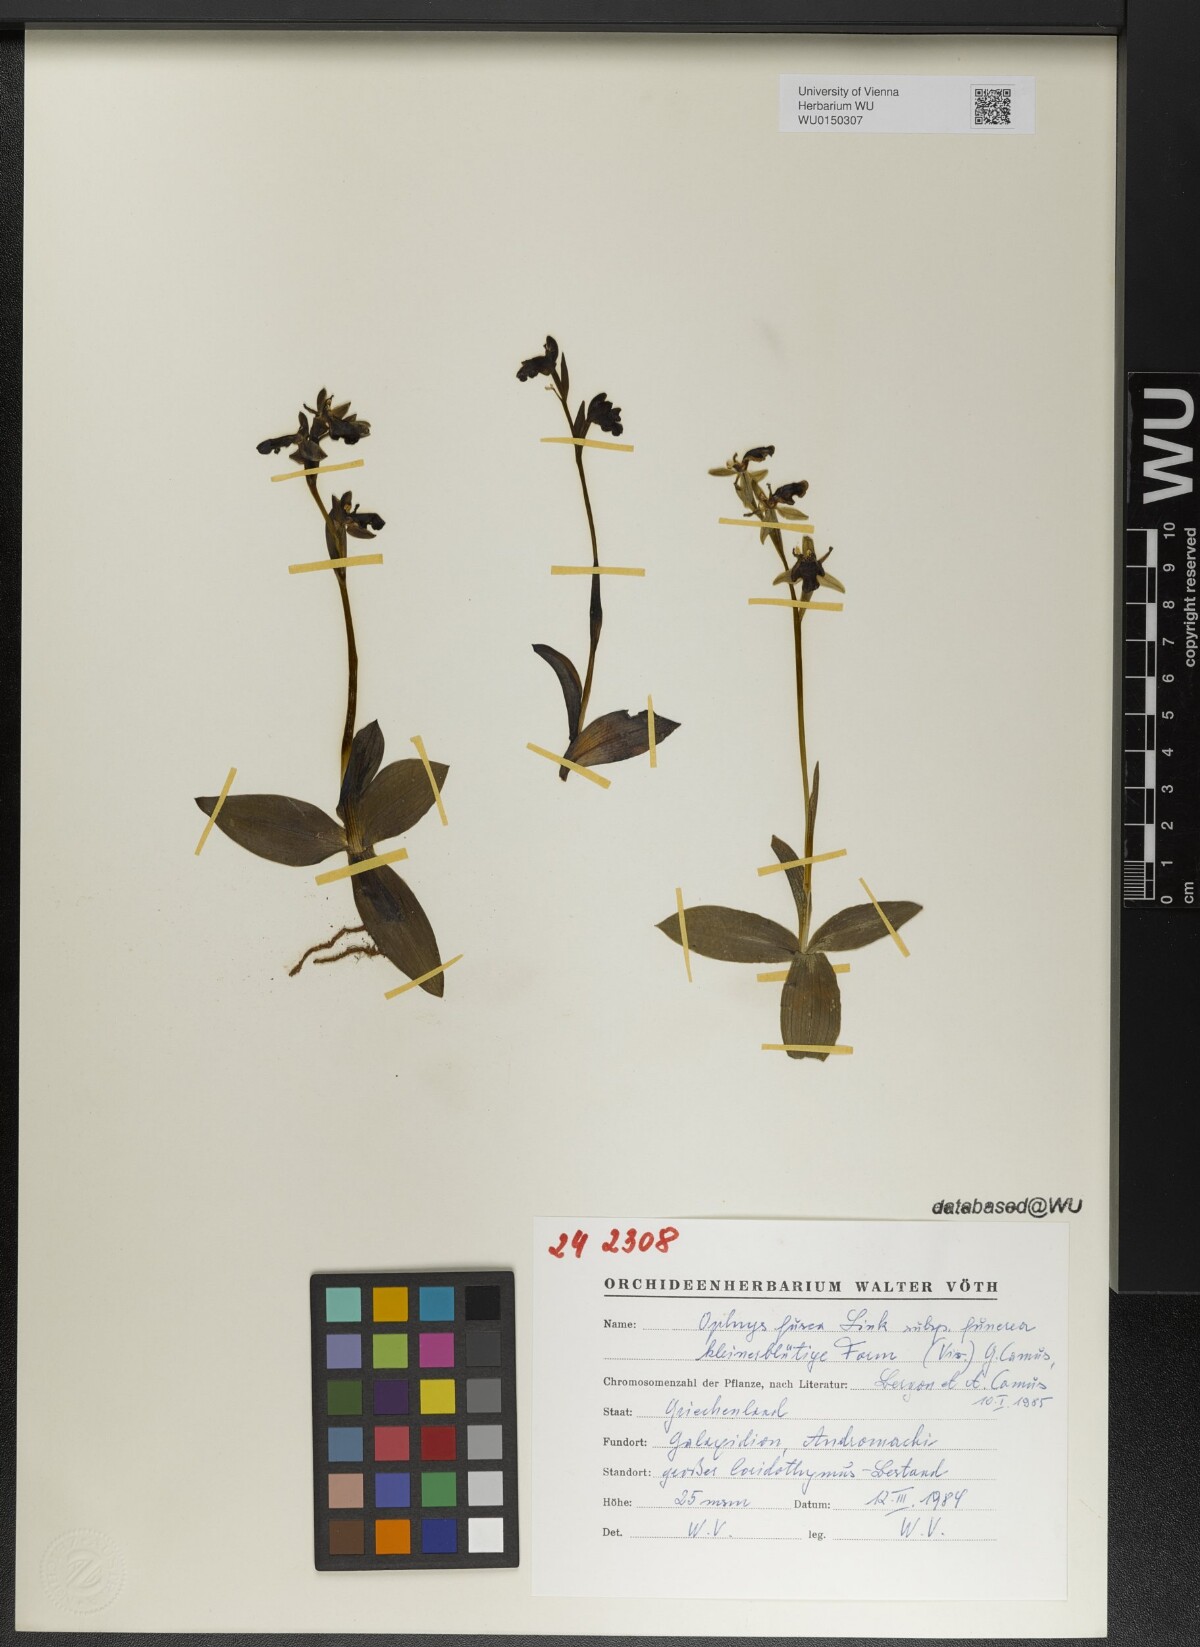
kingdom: Plantae
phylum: Tracheophyta
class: Liliopsida
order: Asparagales
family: Orchidaceae
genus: Ophrys
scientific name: Ophrys fusca
